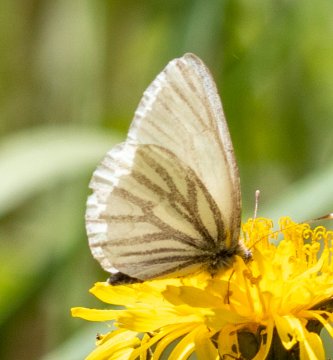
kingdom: Animalia
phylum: Arthropoda
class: Insecta
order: Lepidoptera
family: Pieridae
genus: Pieris
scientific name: Pieris oleracea
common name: Mustard White
